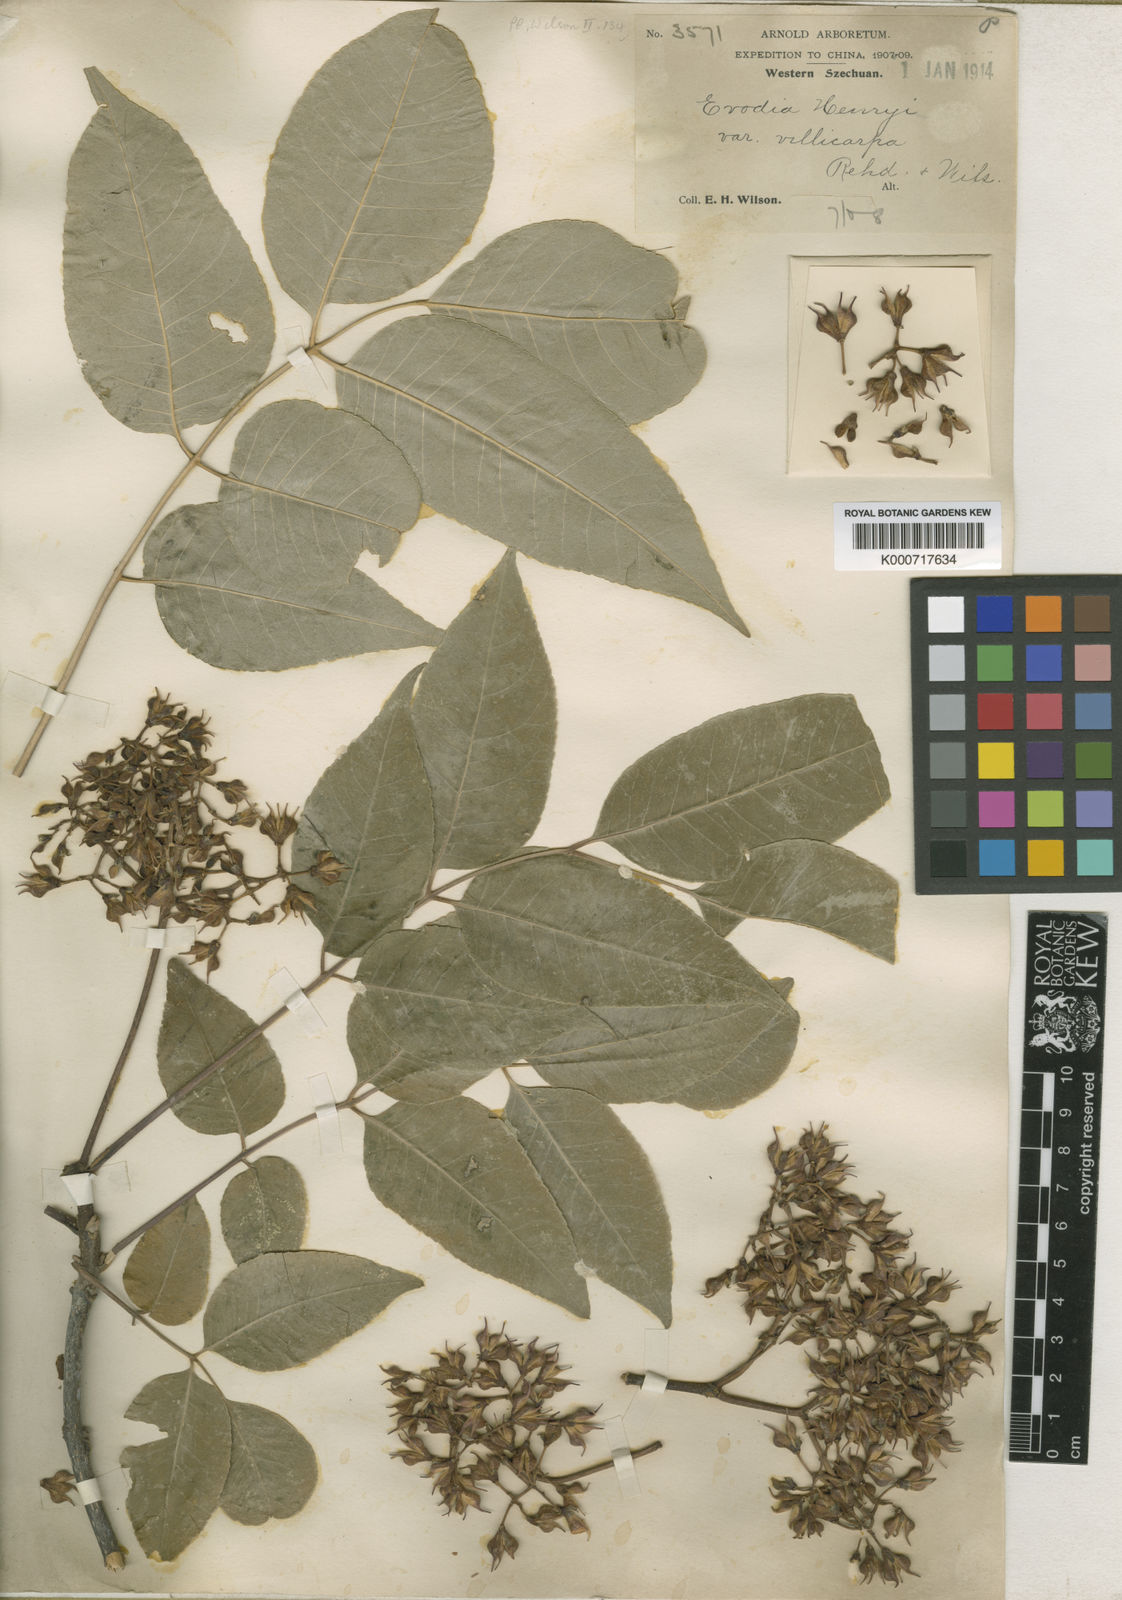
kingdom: Plantae
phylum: Tracheophyta
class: Magnoliopsida
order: Sapindales
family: Rutaceae
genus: Tetradium
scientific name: Tetradium daniellii
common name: Bee-bee tree
